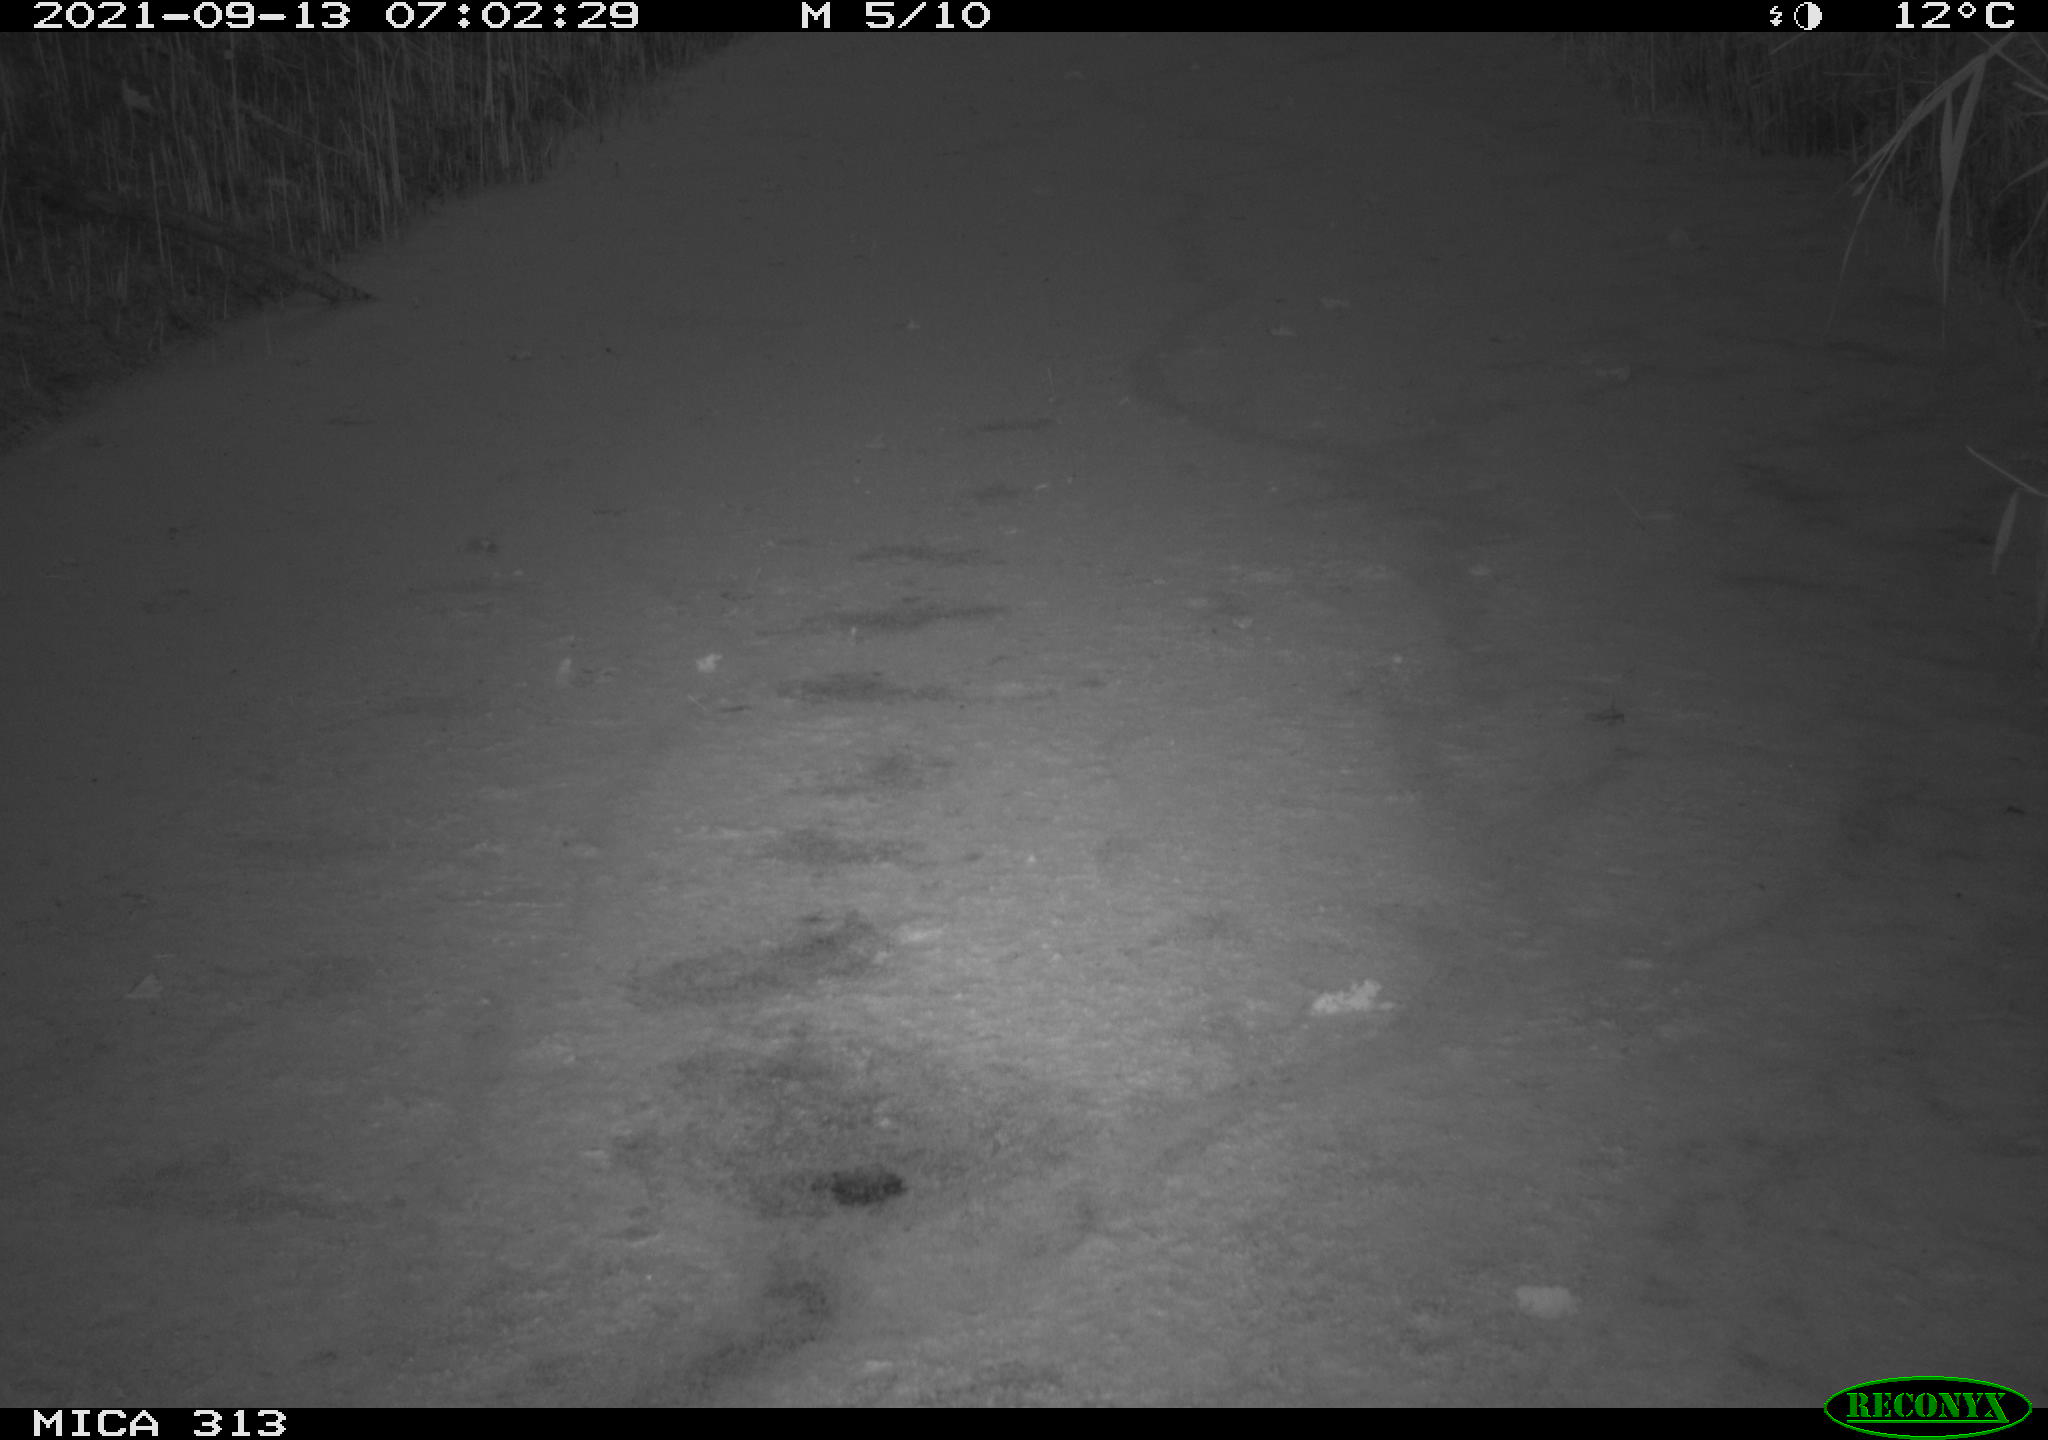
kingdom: Animalia
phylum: Chordata
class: Aves
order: Gruiformes
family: Rallidae
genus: Gallinula
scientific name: Gallinula chloropus
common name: Common moorhen
